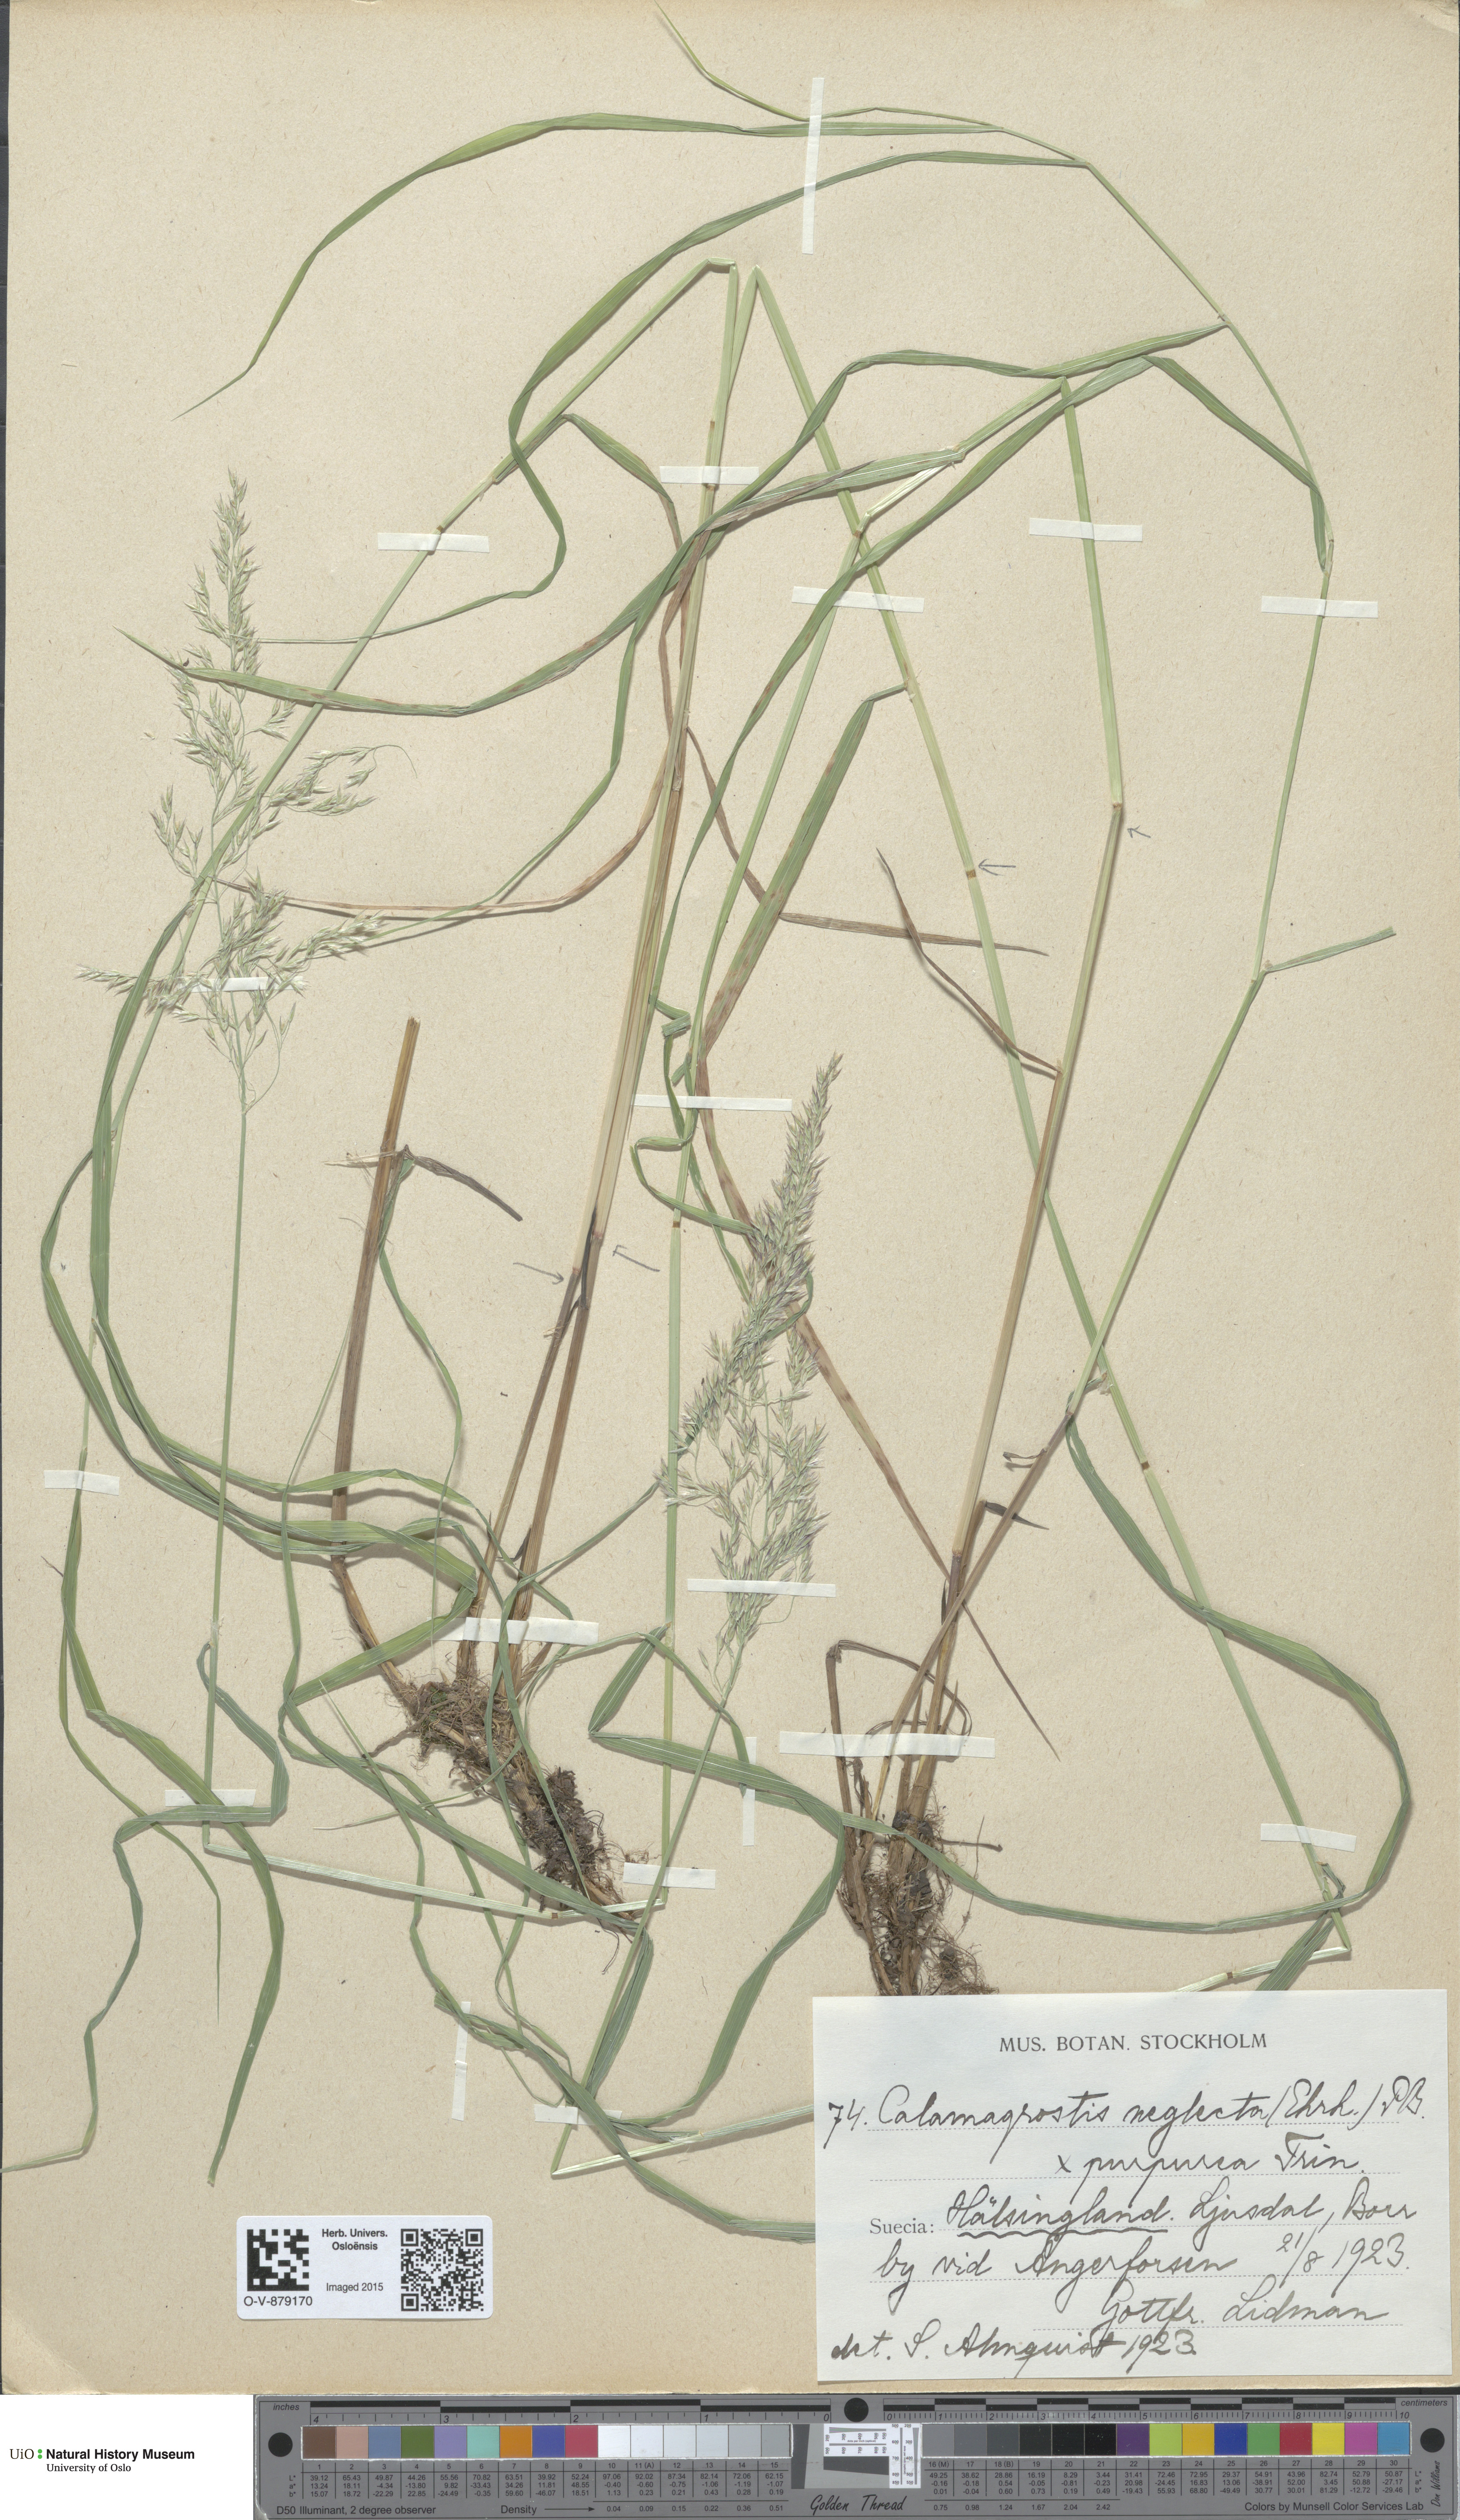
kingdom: Plantae
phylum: Tracheophyta
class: Liliopsida
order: Poales
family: Poaceae
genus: Calamagrostis
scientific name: Calamagrostis
